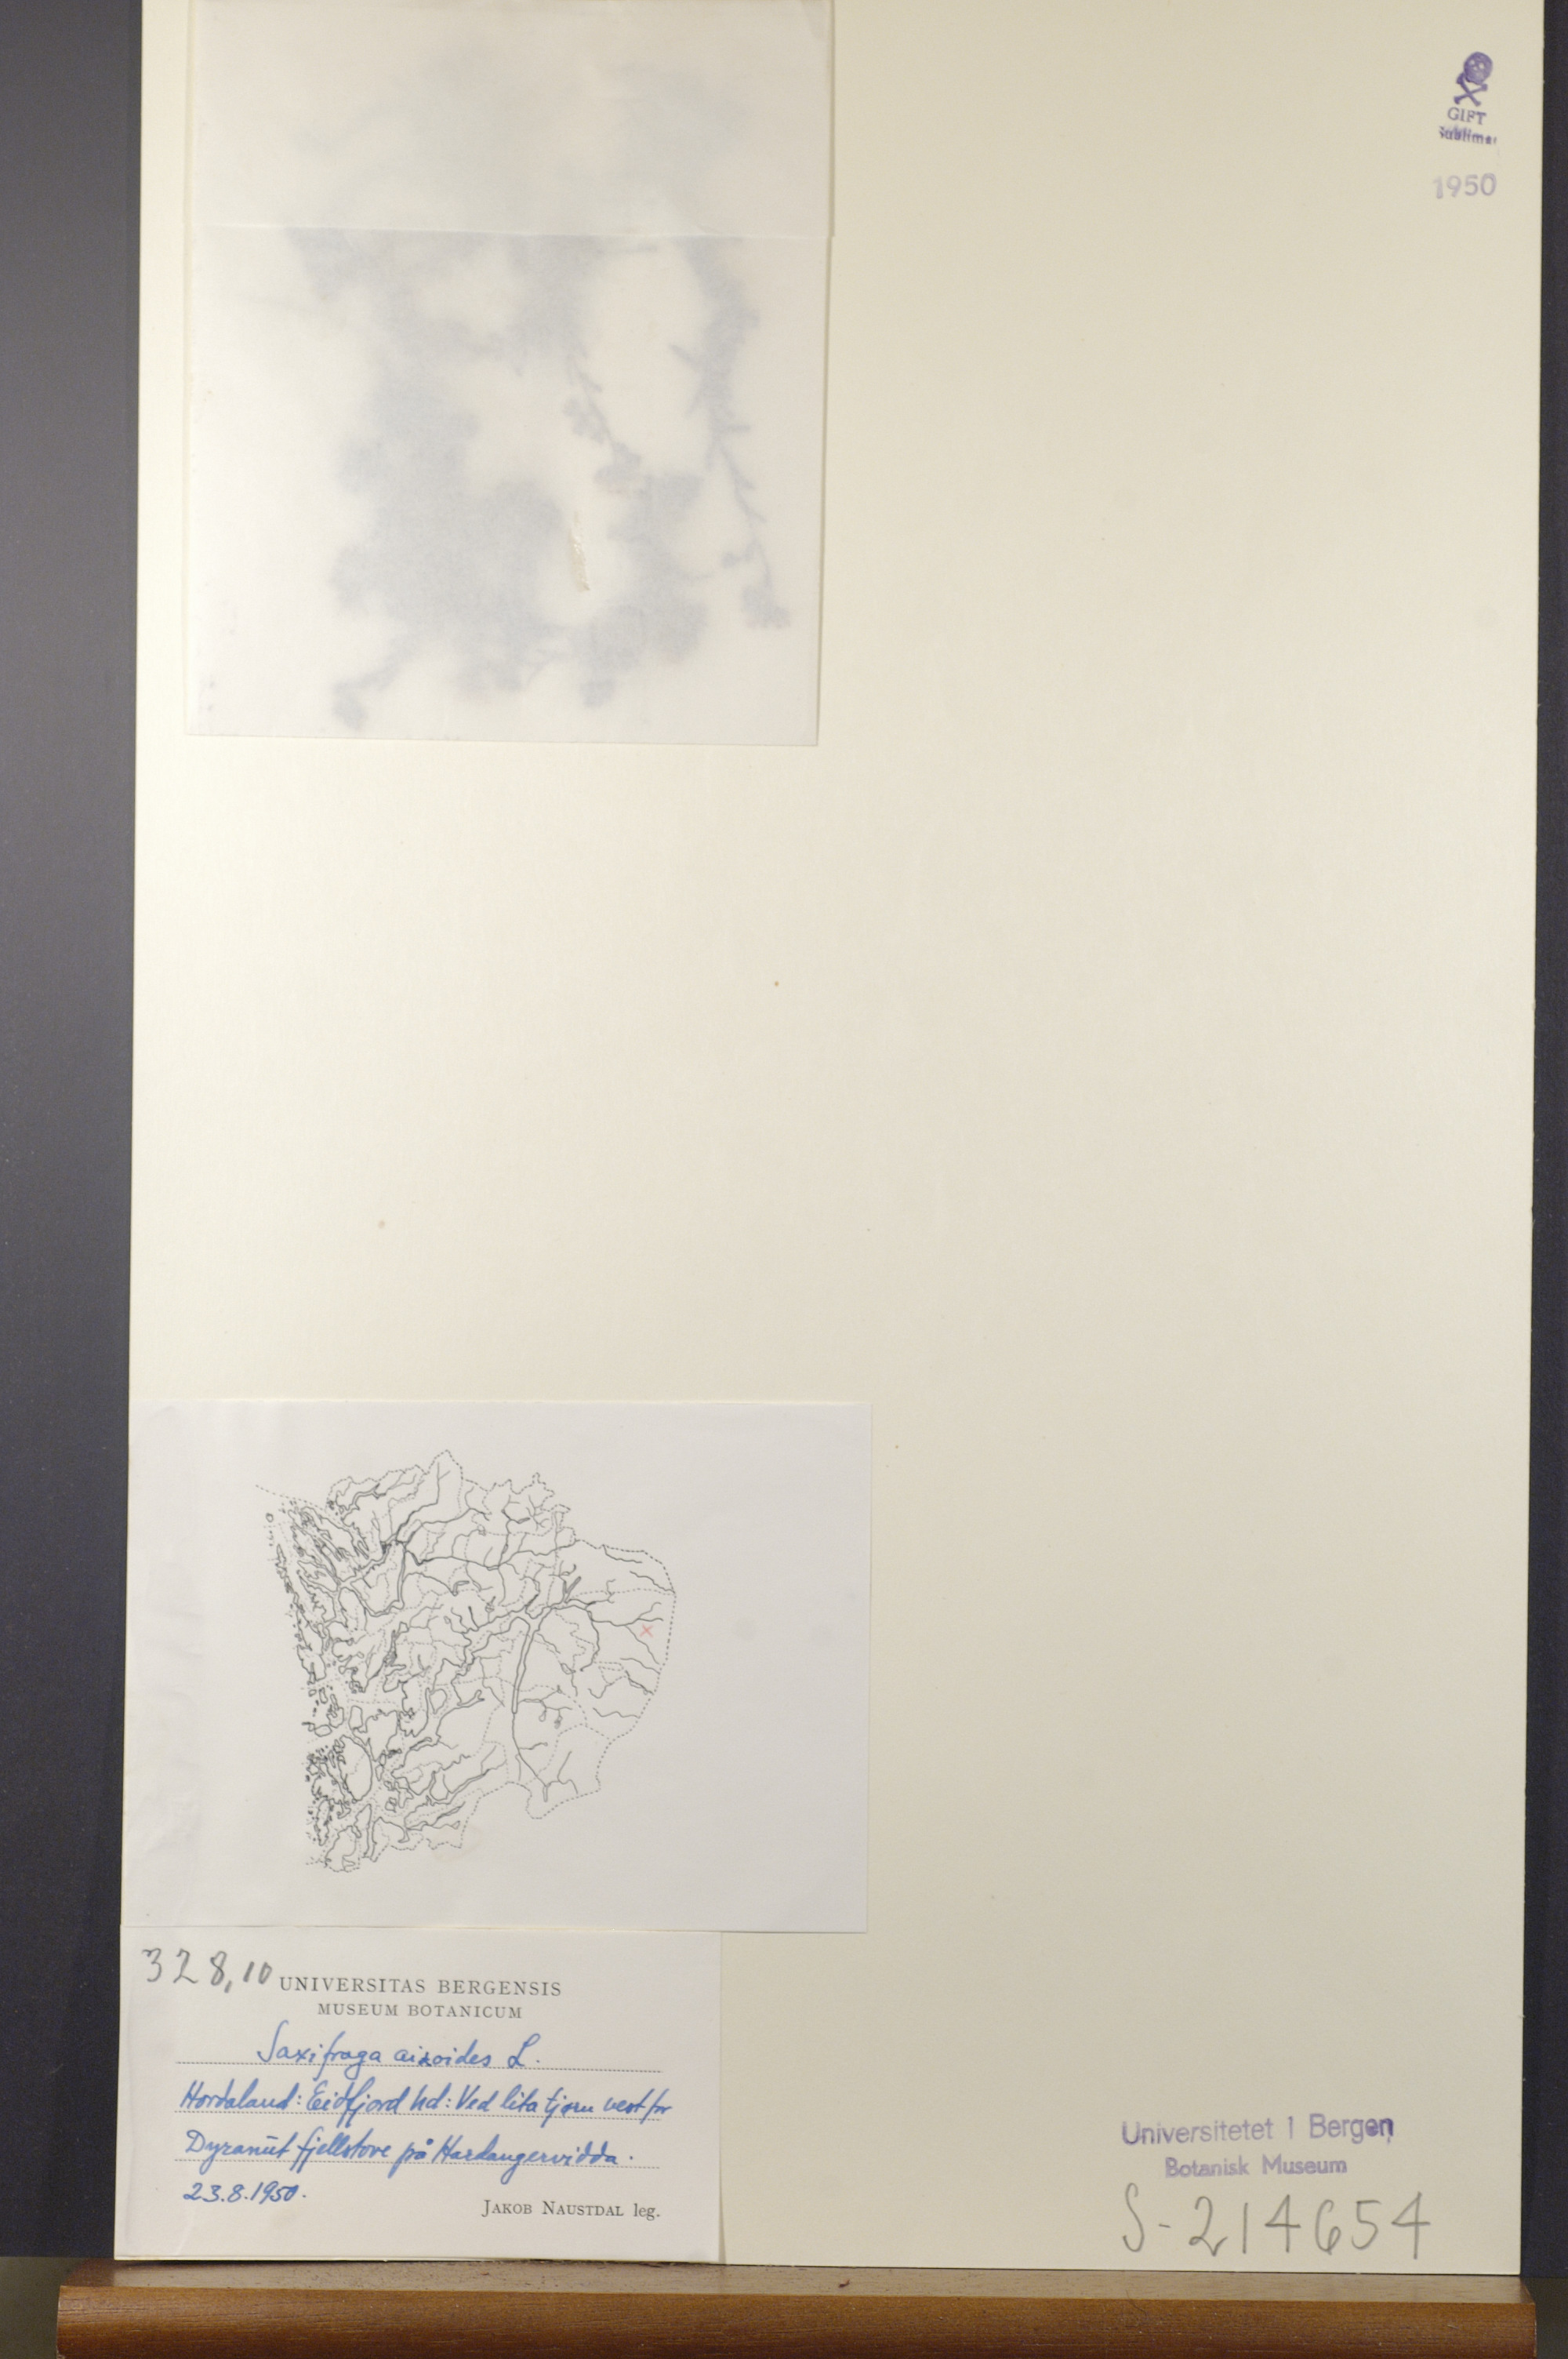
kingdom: Plantae
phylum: Tracheophyta
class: Magnoliopsida
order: Saxifragales
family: Saxifragaceae
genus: Saxifraga
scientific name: Saxifraga aizoides
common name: Yellow mountain saxifrage
